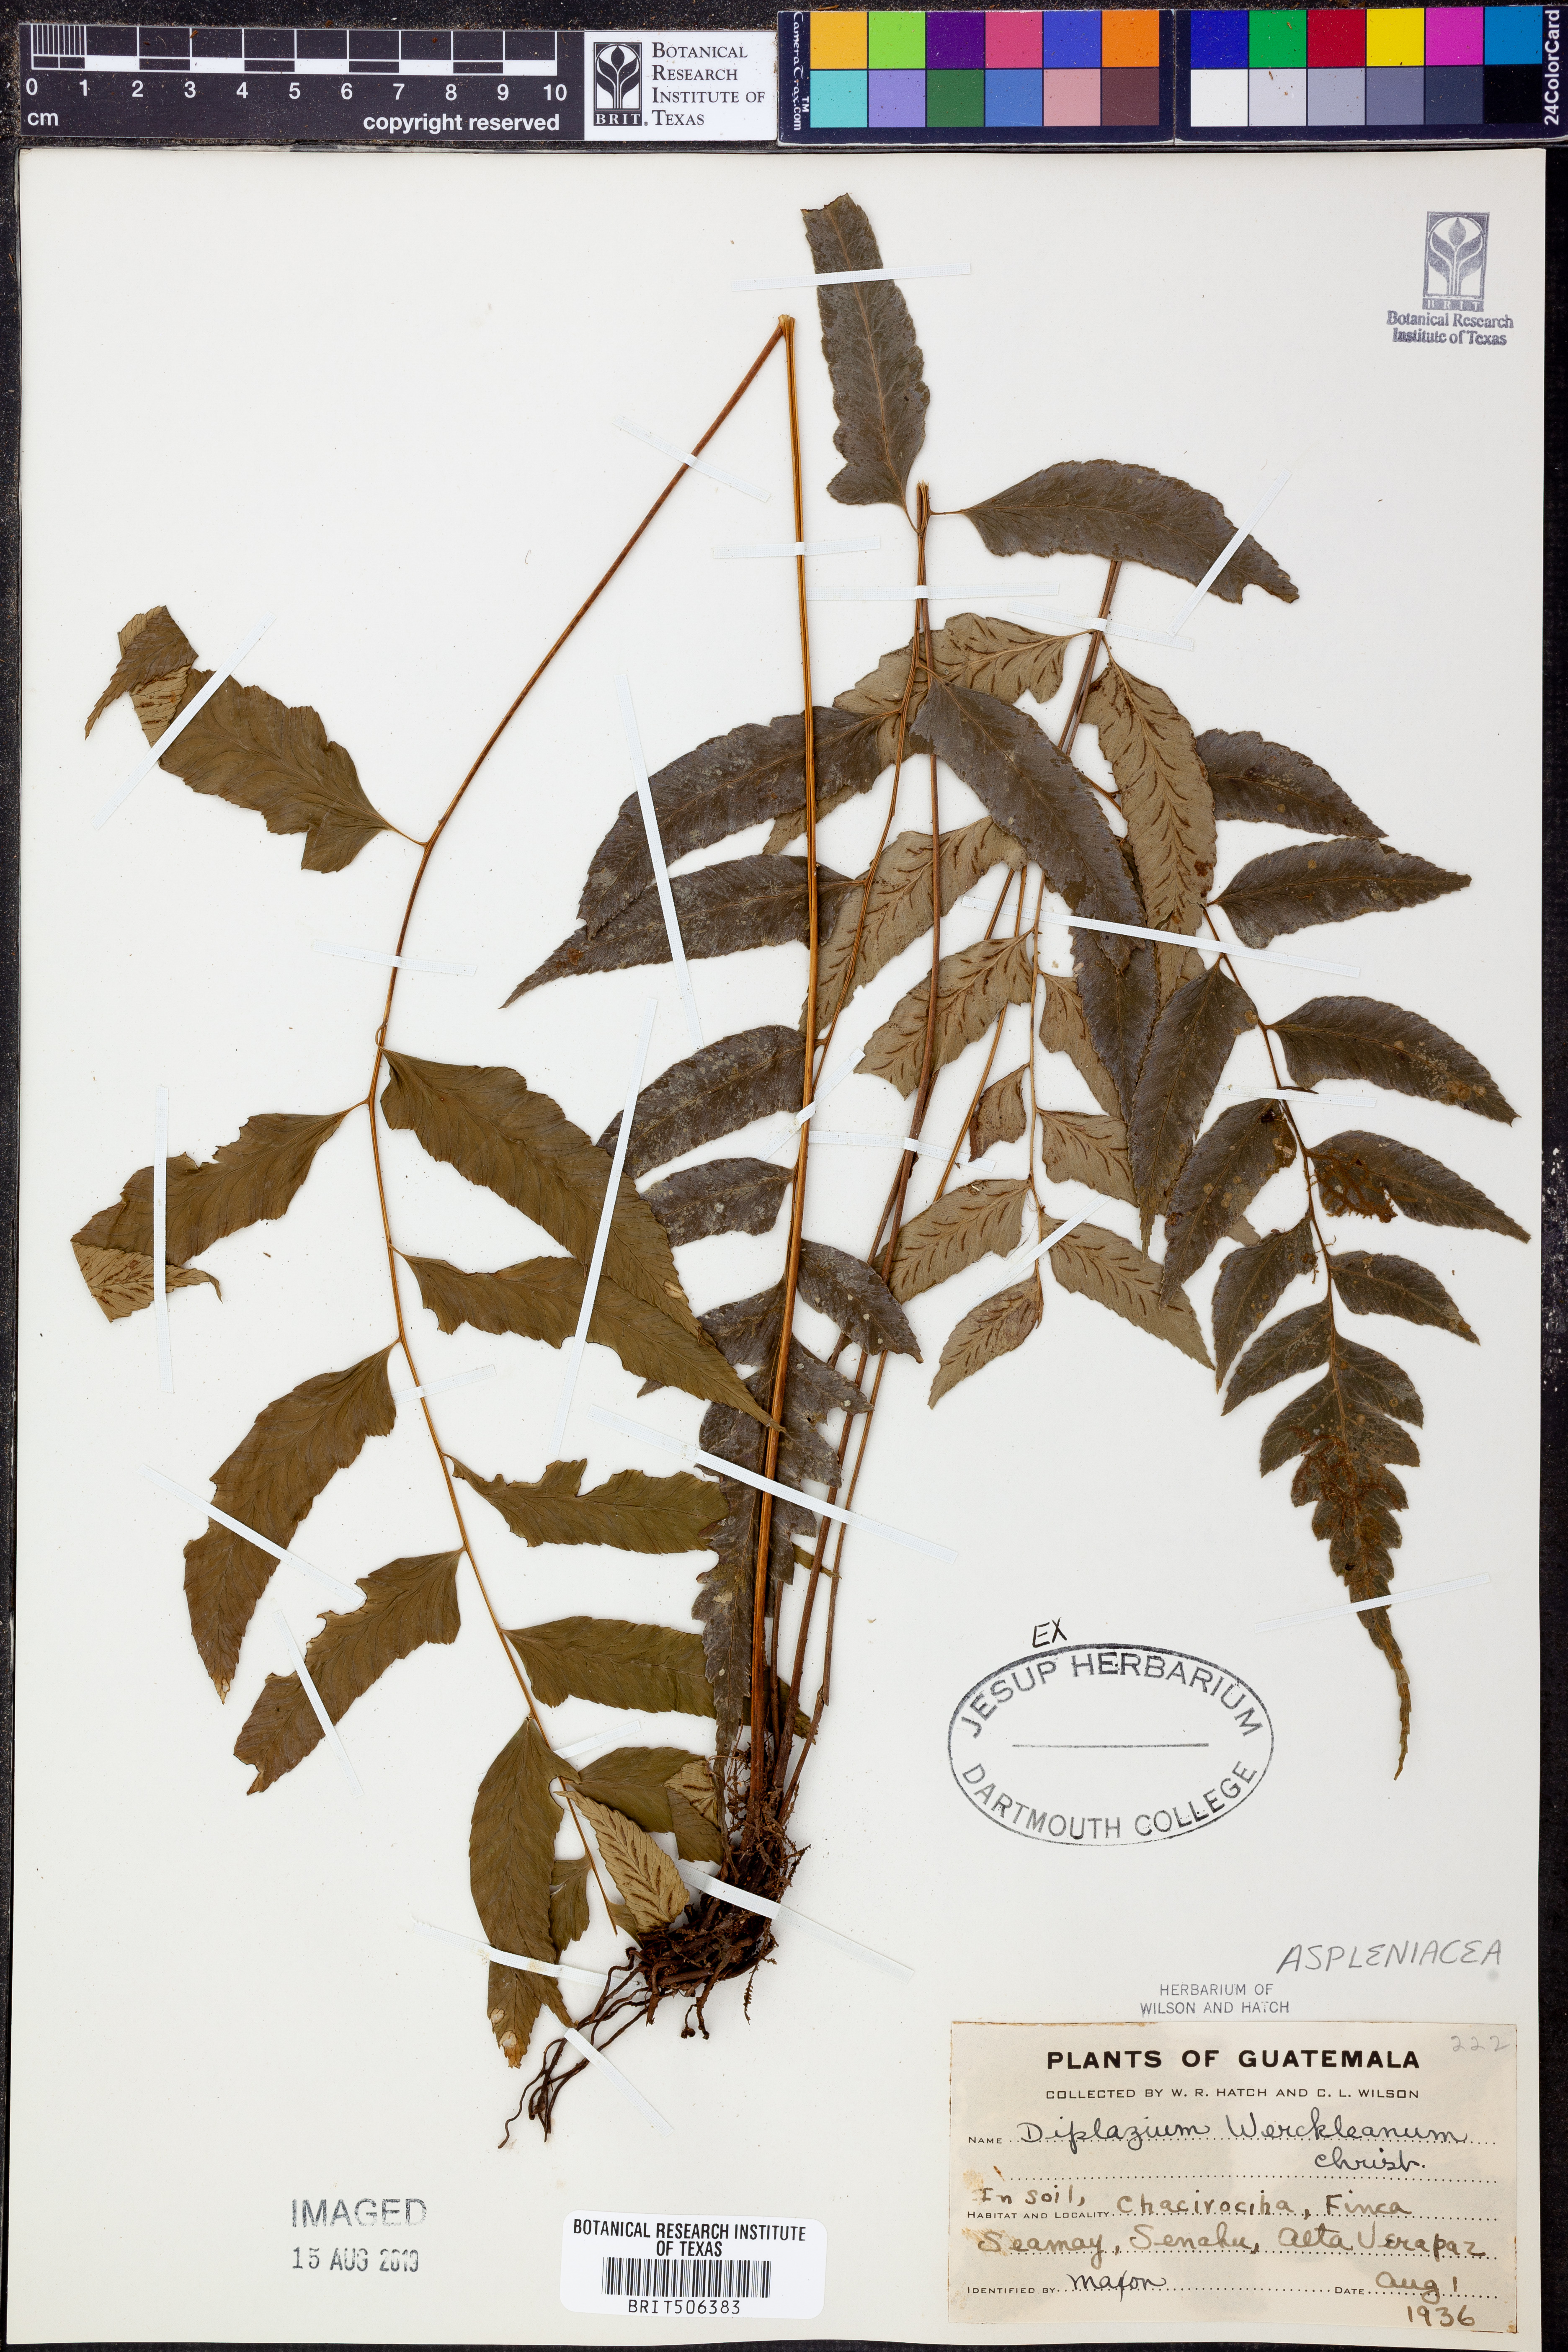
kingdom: Plantae
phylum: Tracheophyta
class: Polypodiopsida
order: Polypodiales
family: Athyriaceae
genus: Diplazium
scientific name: Diplazium werckleanum
